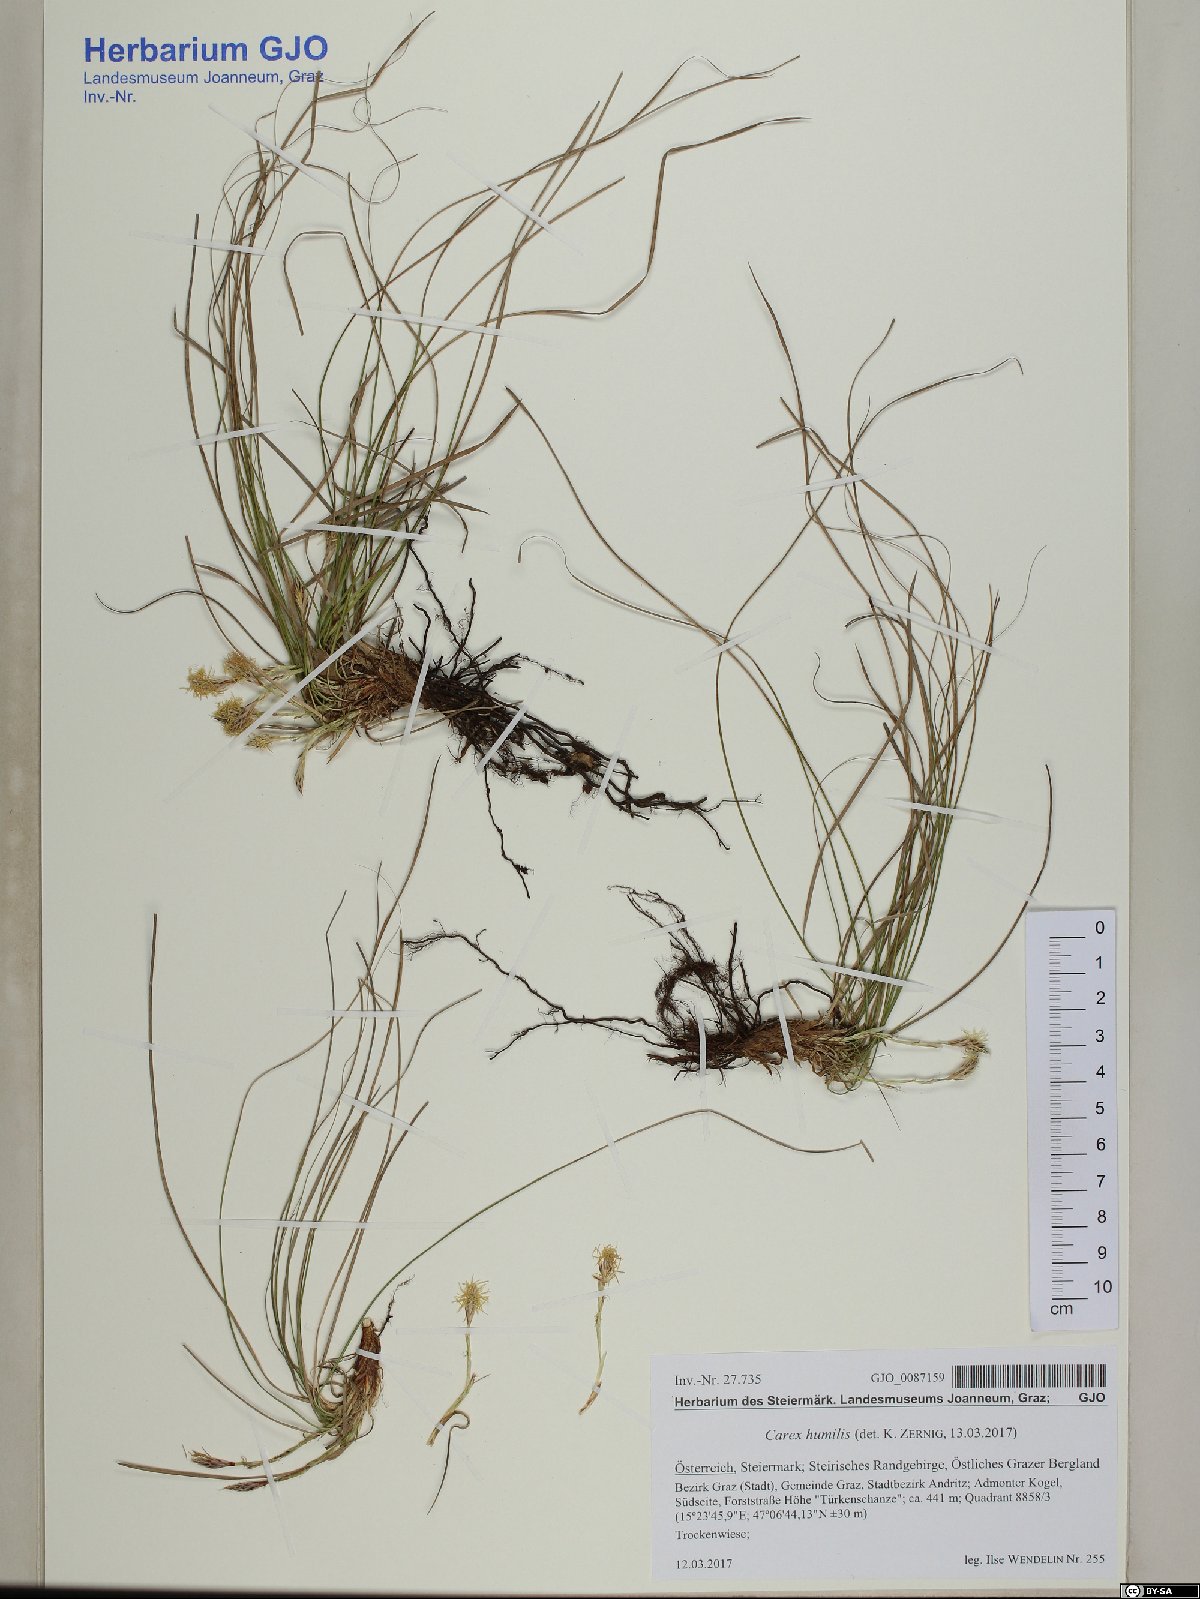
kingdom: Plantae
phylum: Tracheophyta
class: Liliopsida
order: Poales
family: Cyperaceae
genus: Carex
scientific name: Carex humilis
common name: Dwarf sedge
